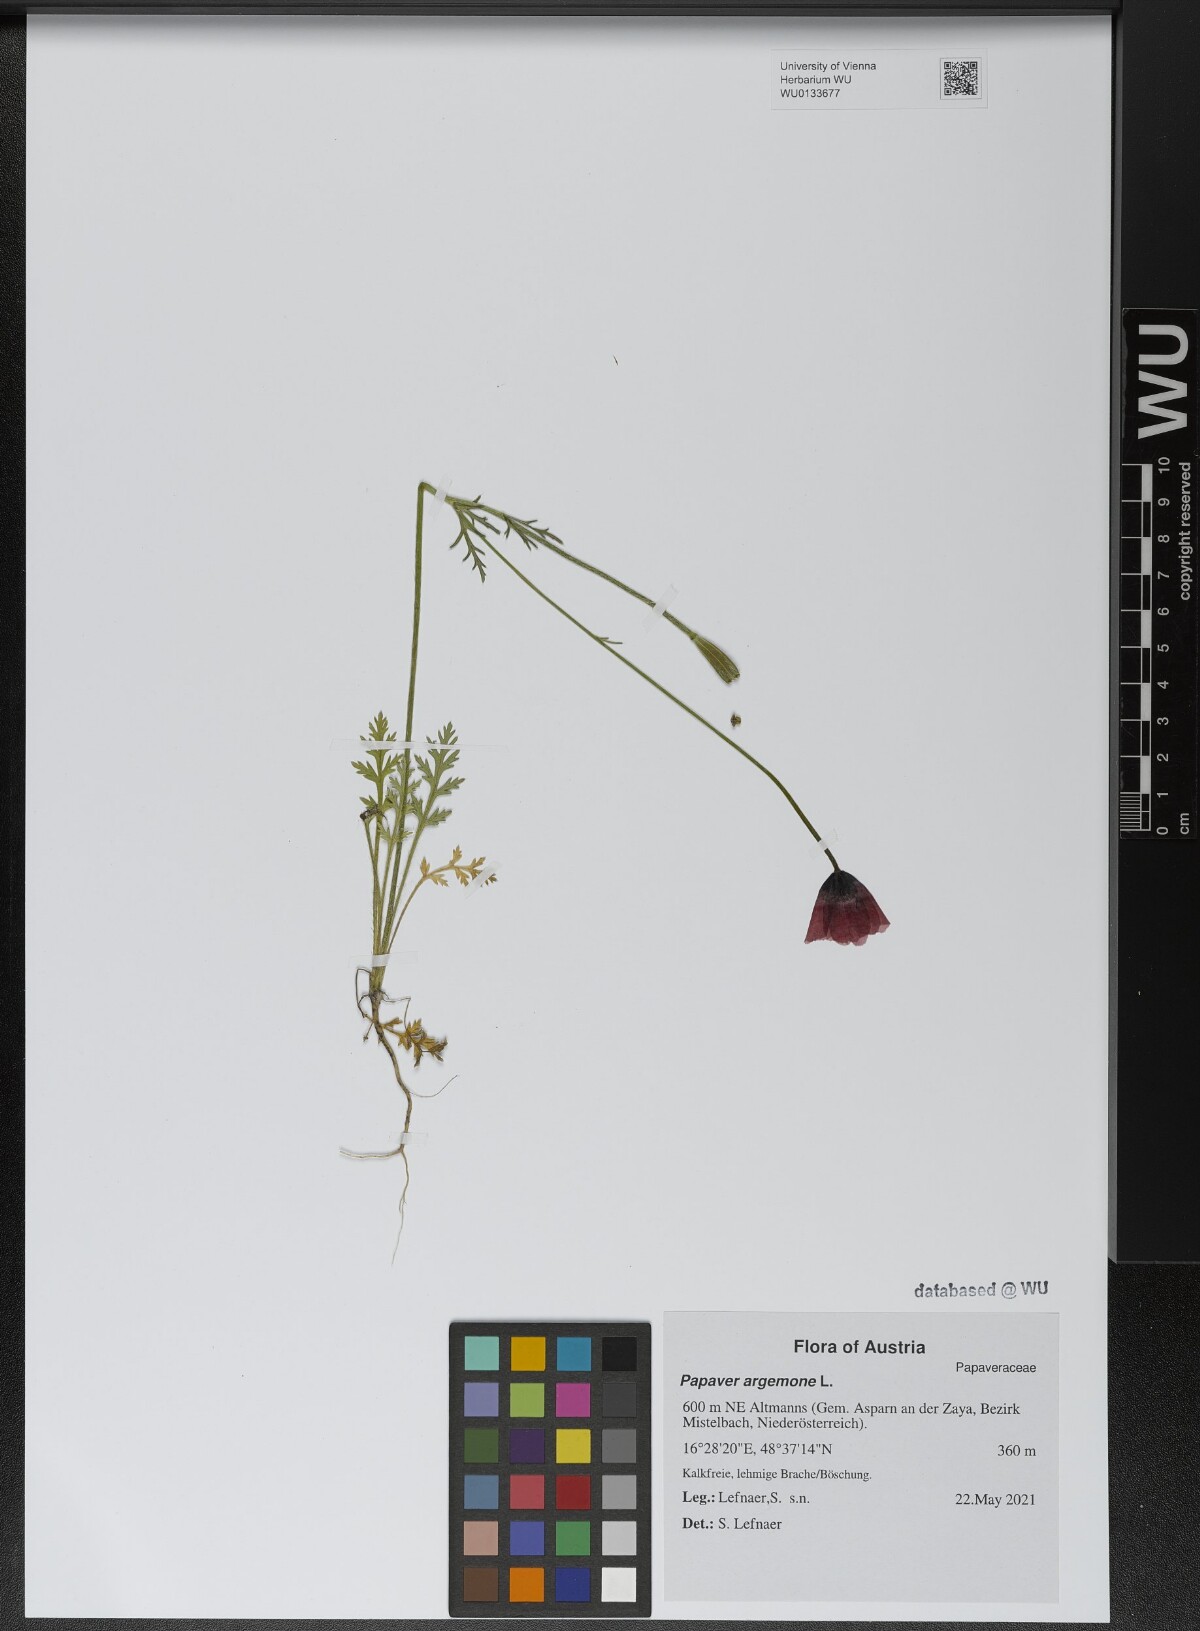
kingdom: Plantae
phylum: Tracheophyta
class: Magnoliopsida
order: Ranunculales
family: Papaveraceae
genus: Roemeria
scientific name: Roemeria argemone
